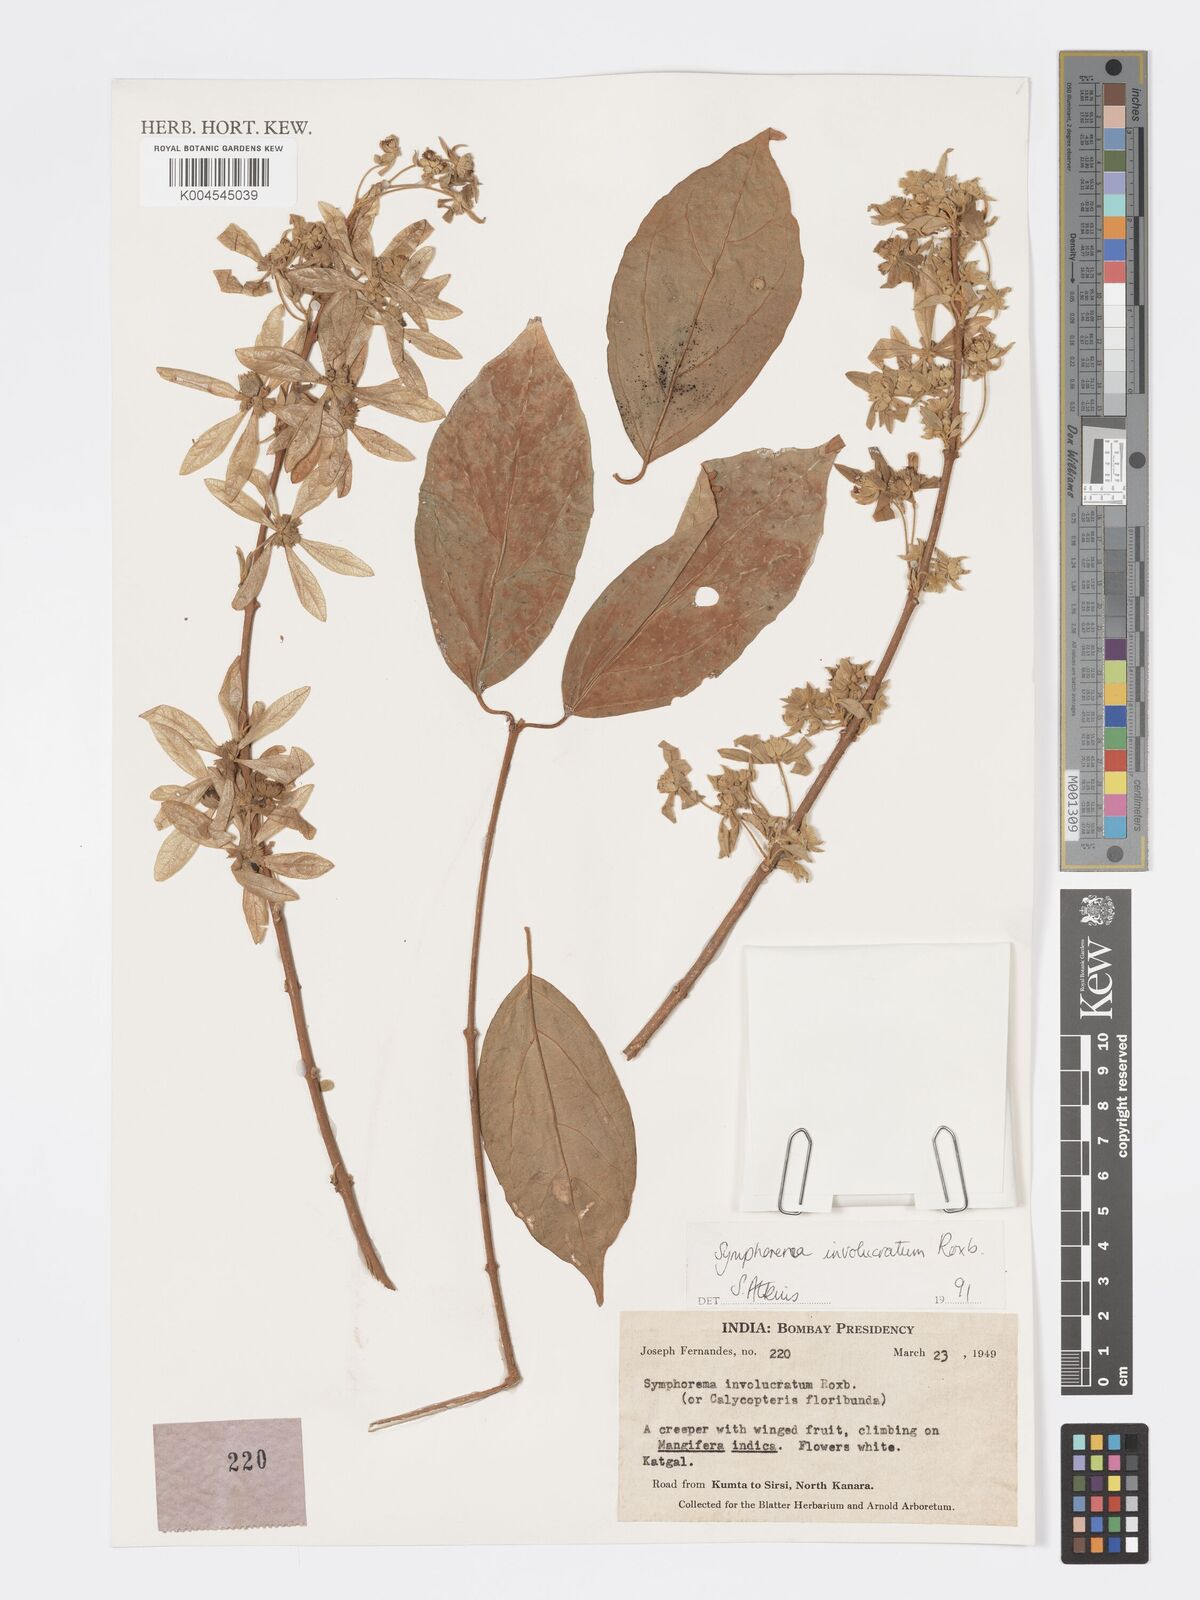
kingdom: Plantae
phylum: Tracheophyta
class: Magnoliopsida
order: Lamiales
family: Lamiaceae
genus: Symphorema
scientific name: Symphorema involucratum
